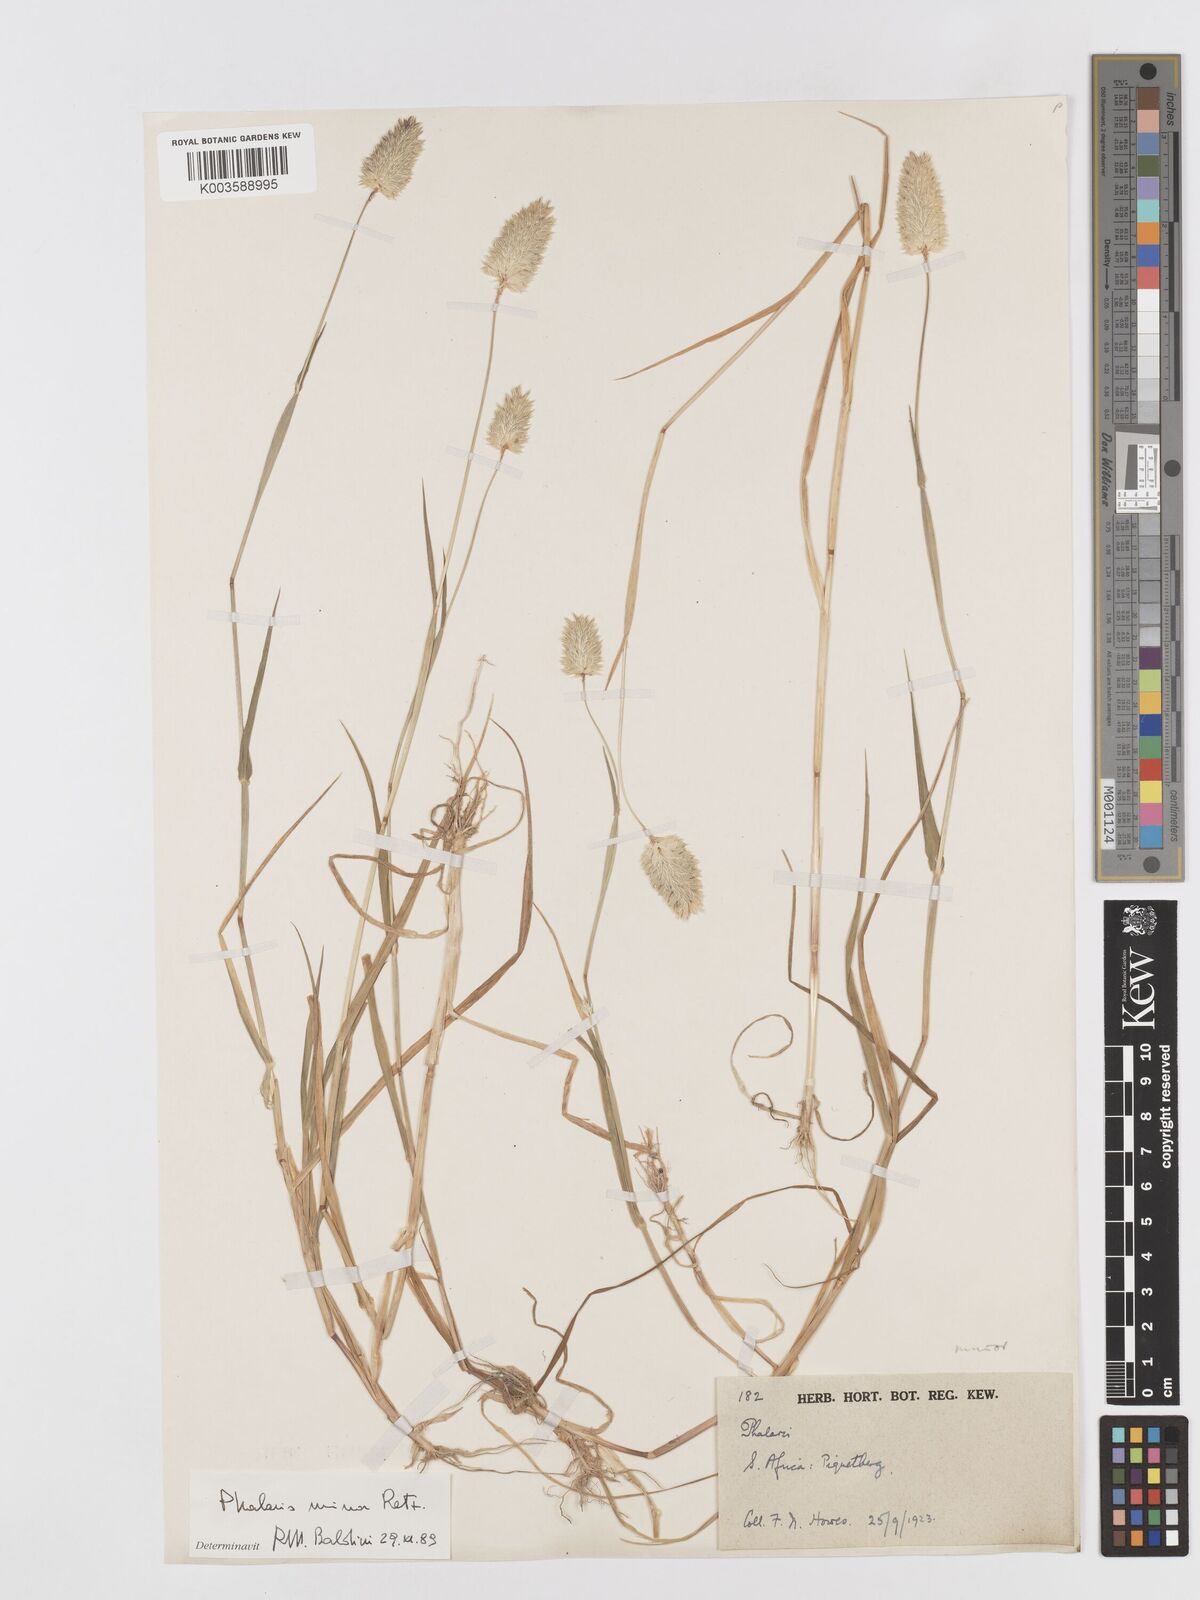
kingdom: Plantae
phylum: Tracheophyta
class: Liliopsida
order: Poales
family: Poaceae
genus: Phalaris
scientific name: Phalaris minor
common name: Littleseed canarygrass
